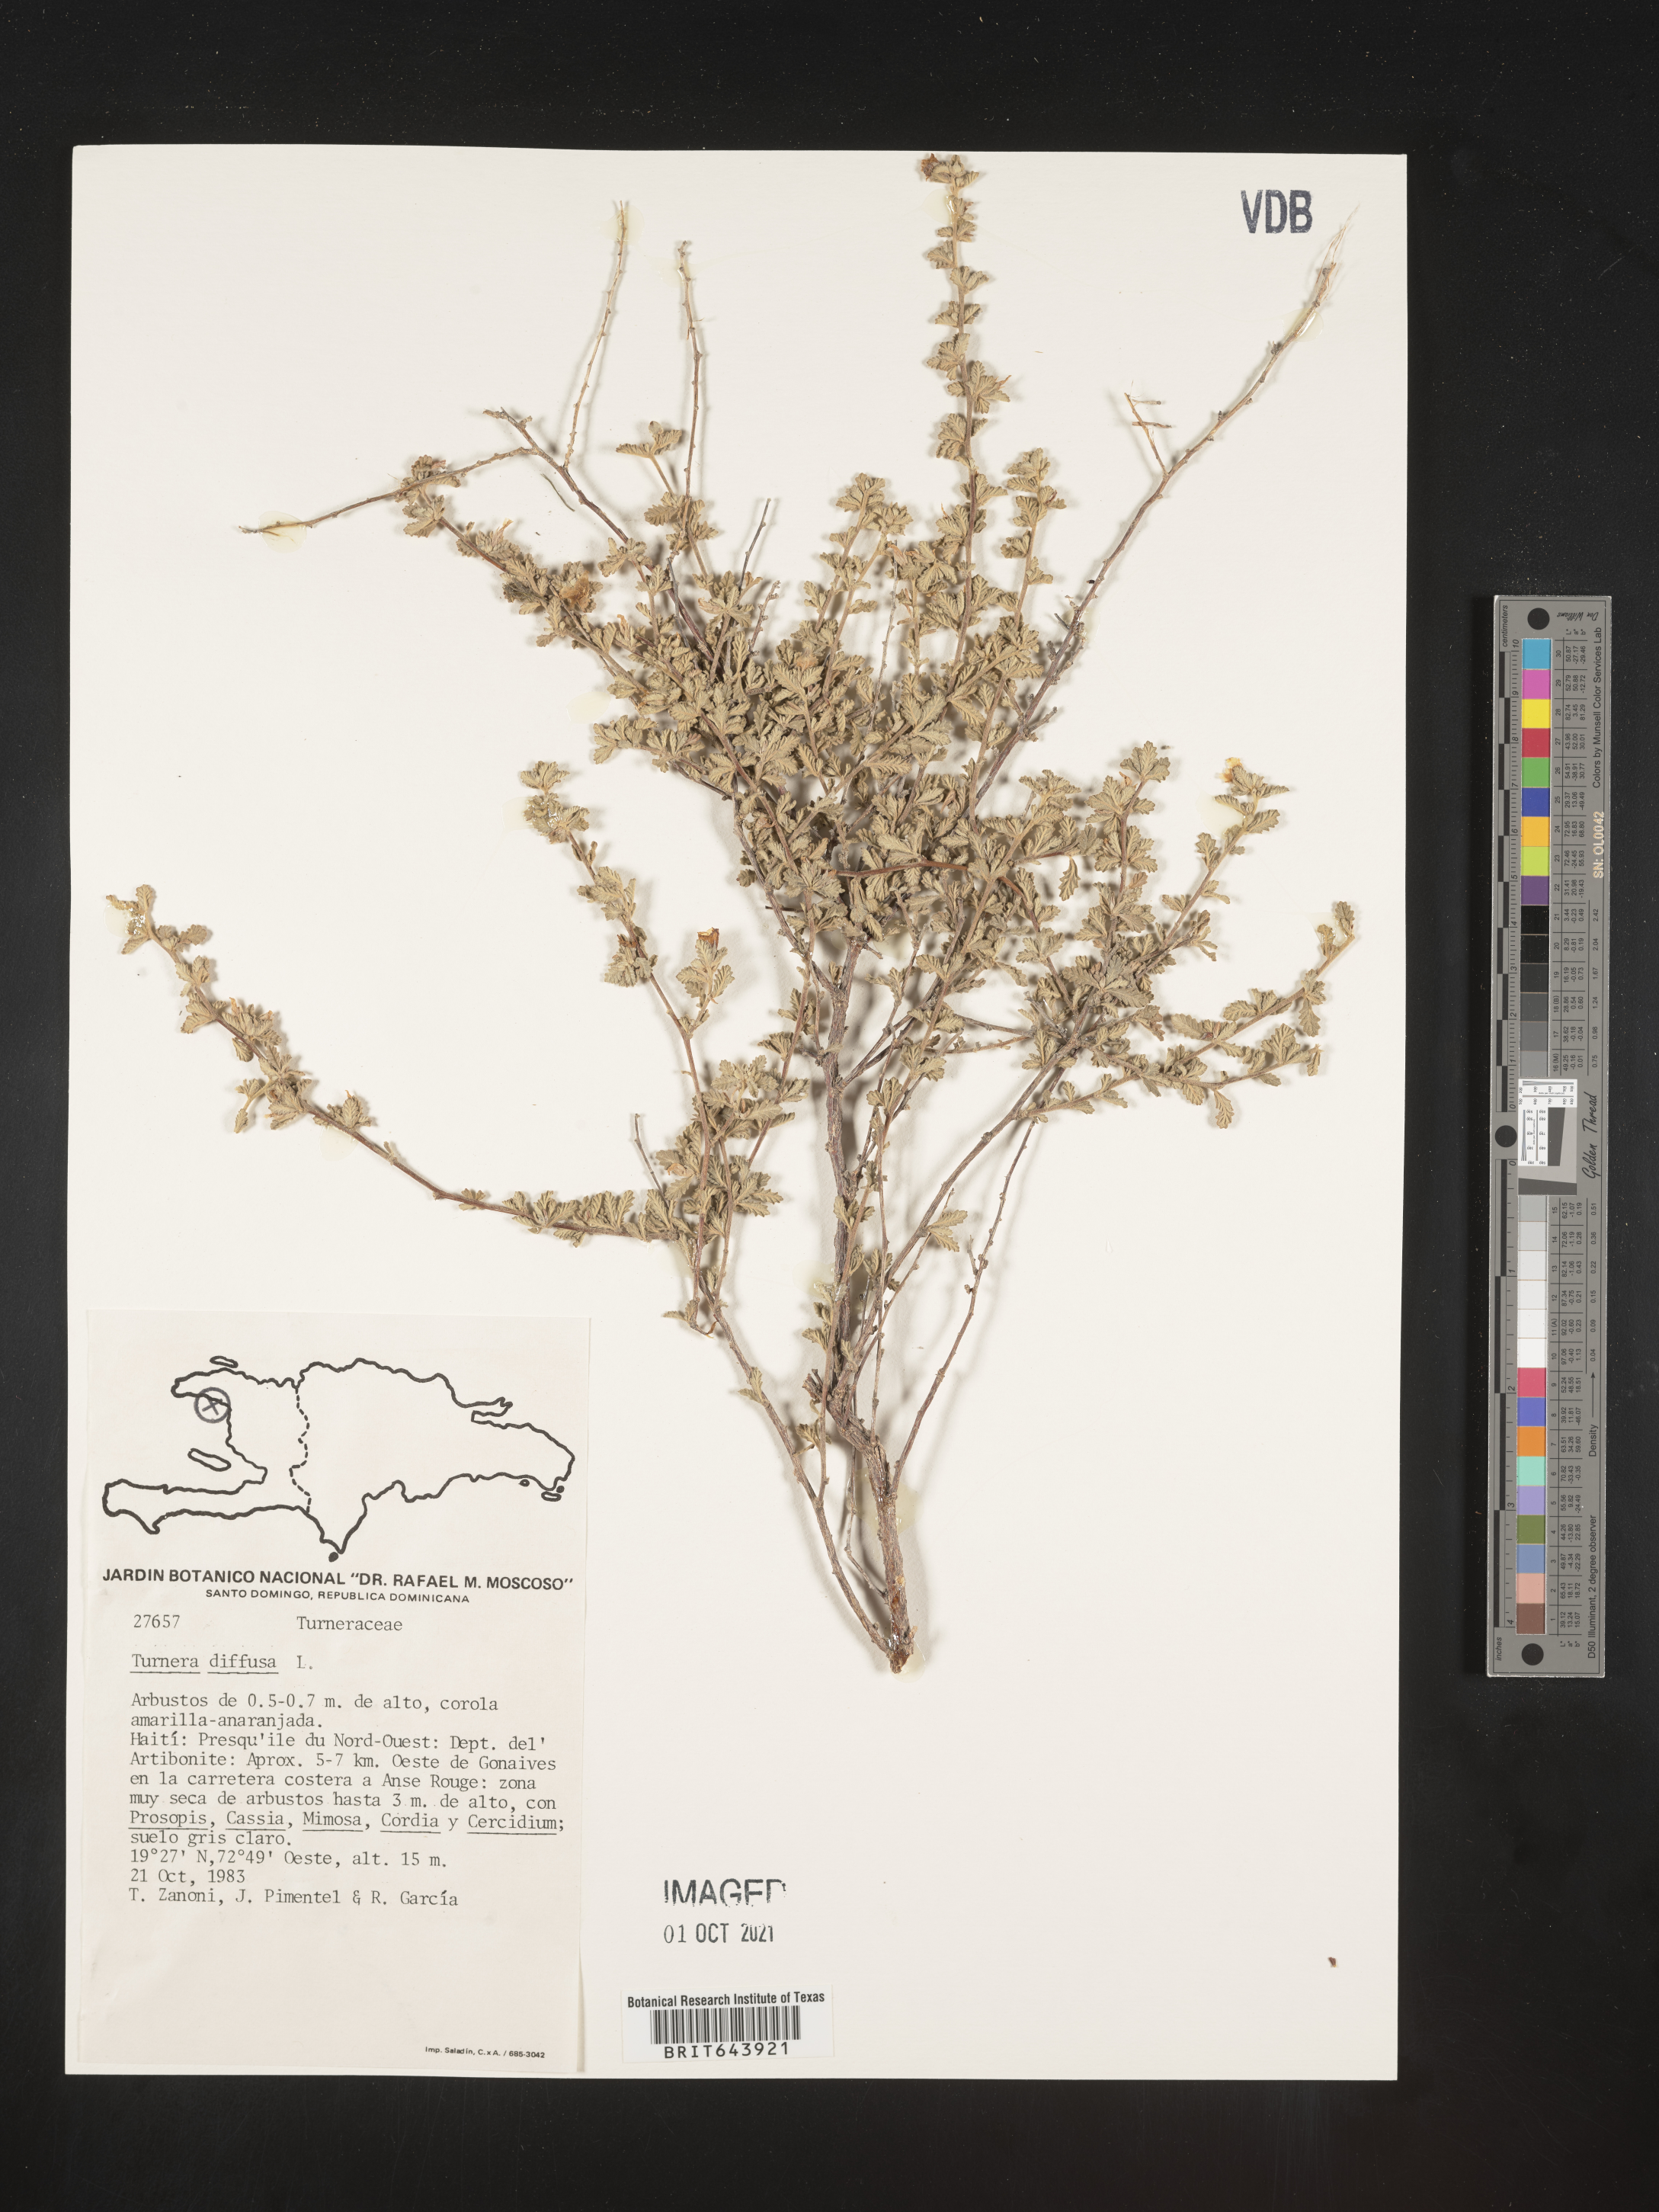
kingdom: Plantae
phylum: Tracheophyta
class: Magnoliopsida
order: Malpighiales
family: Turneraceae
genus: Turnera
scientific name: Turnera
